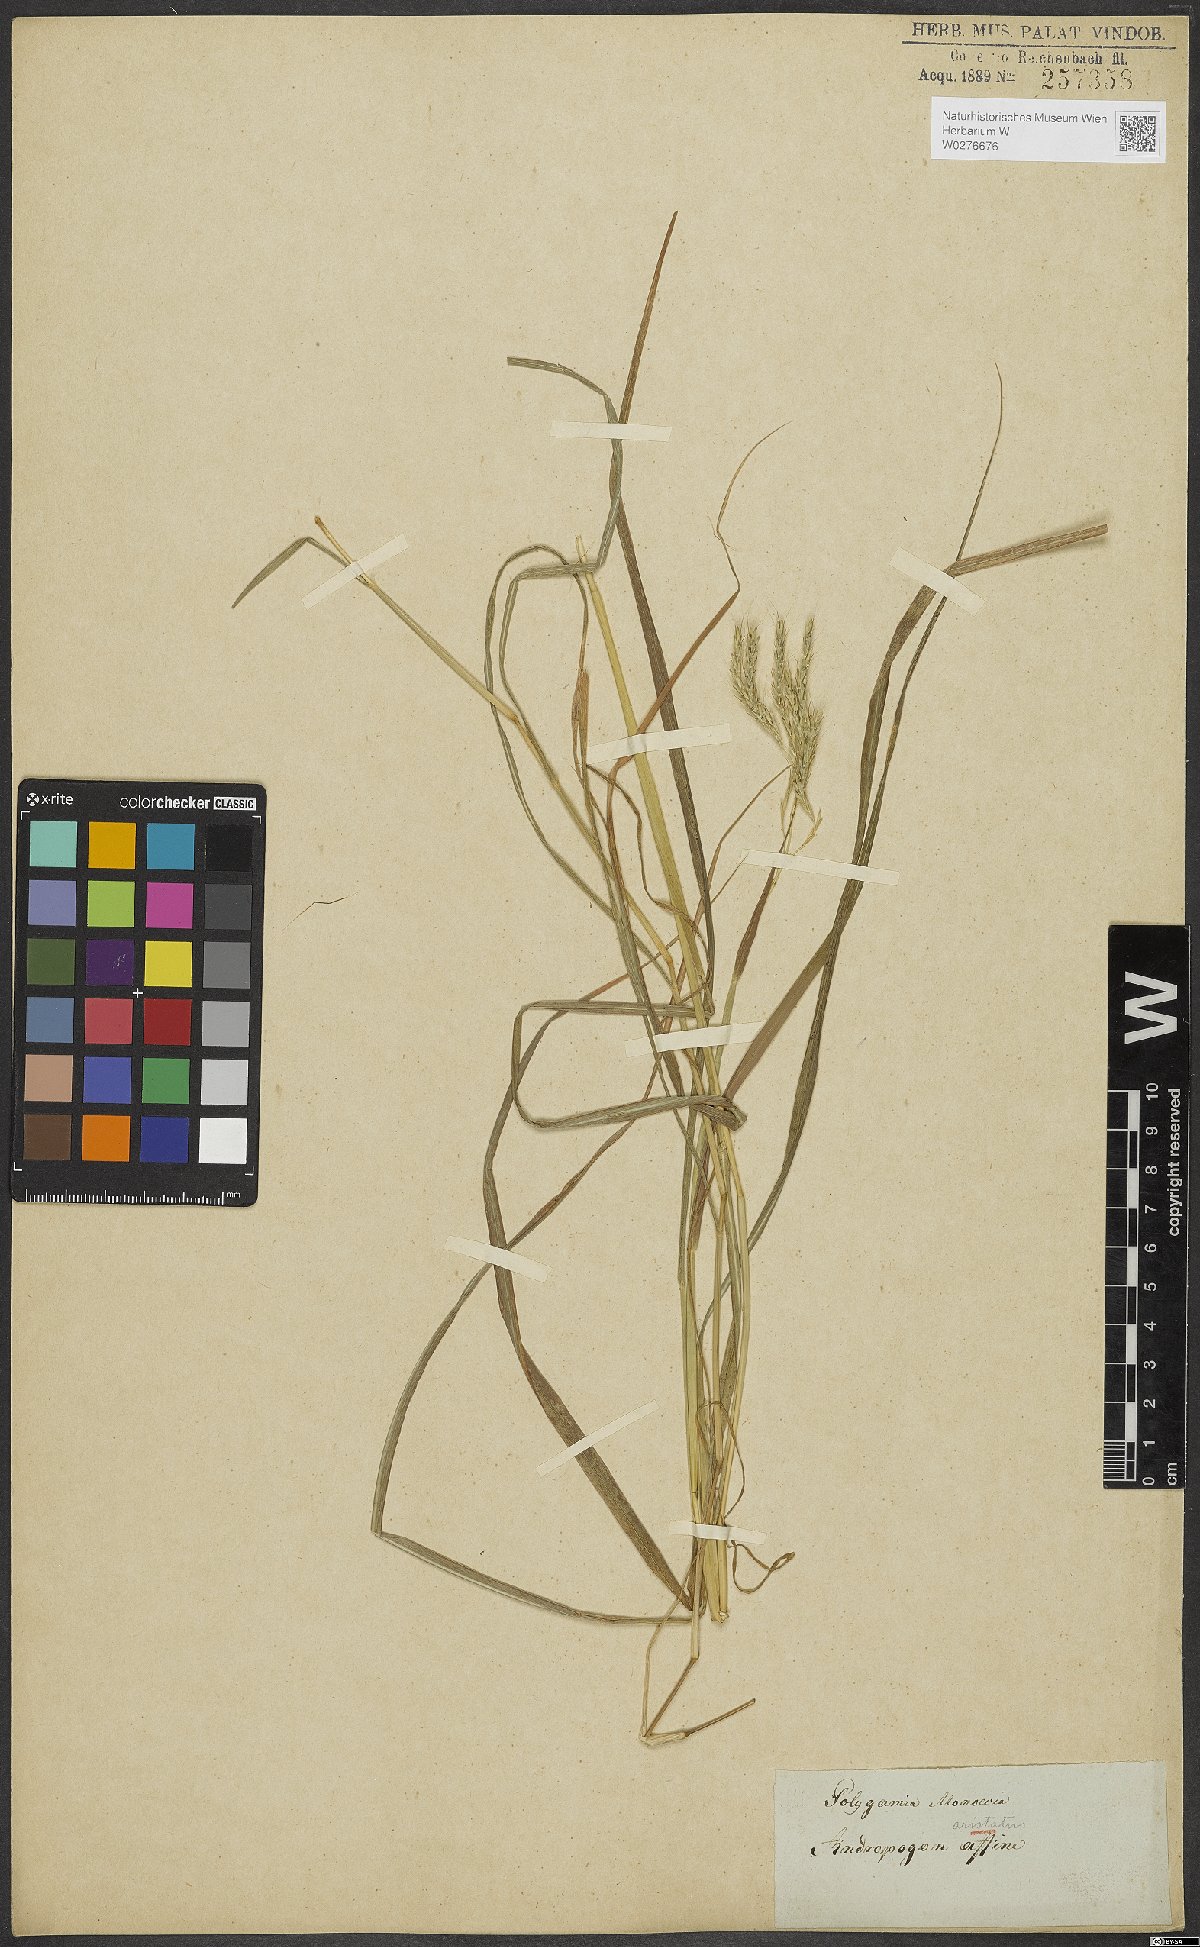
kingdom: Plantae
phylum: Tracheophyta
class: Liliopsida
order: Poales
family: Poaceae
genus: Andropogon
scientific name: Andropogon
